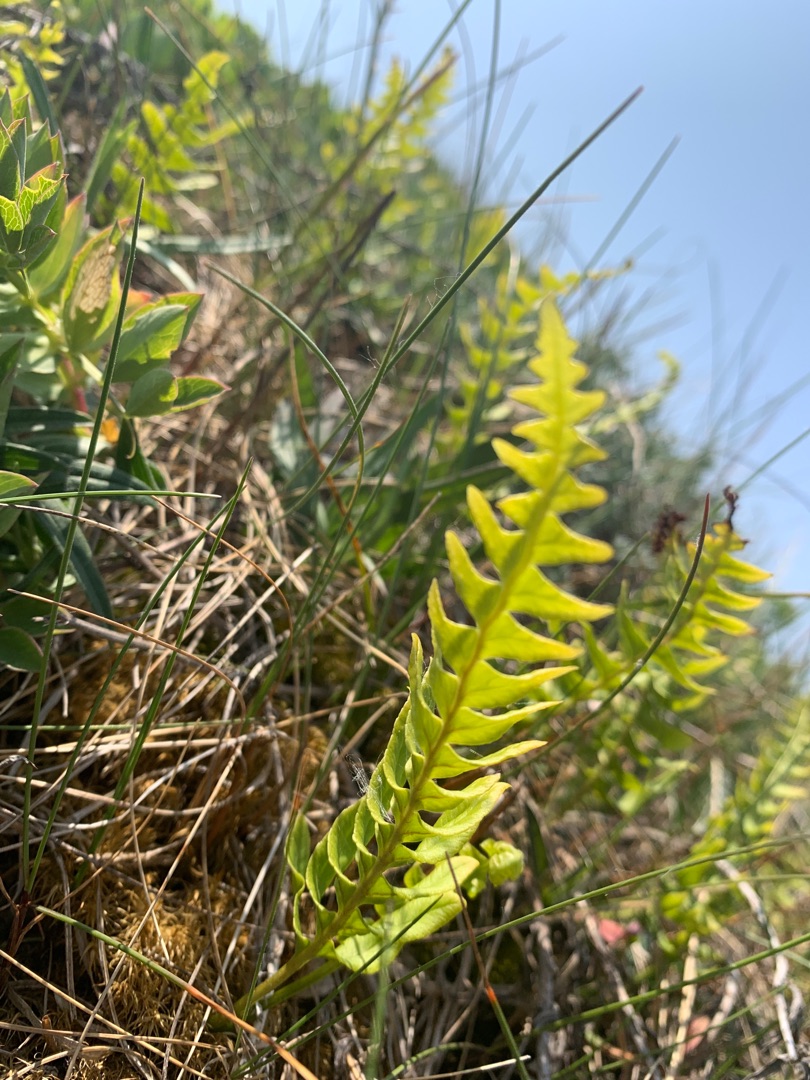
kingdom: Plantae
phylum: Tracheophyta
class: Polypodiopsida
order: Polypodiales
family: Polypodiaceae
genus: Polypodium
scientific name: Polypodium vulgare
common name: Almindelig engelsød
